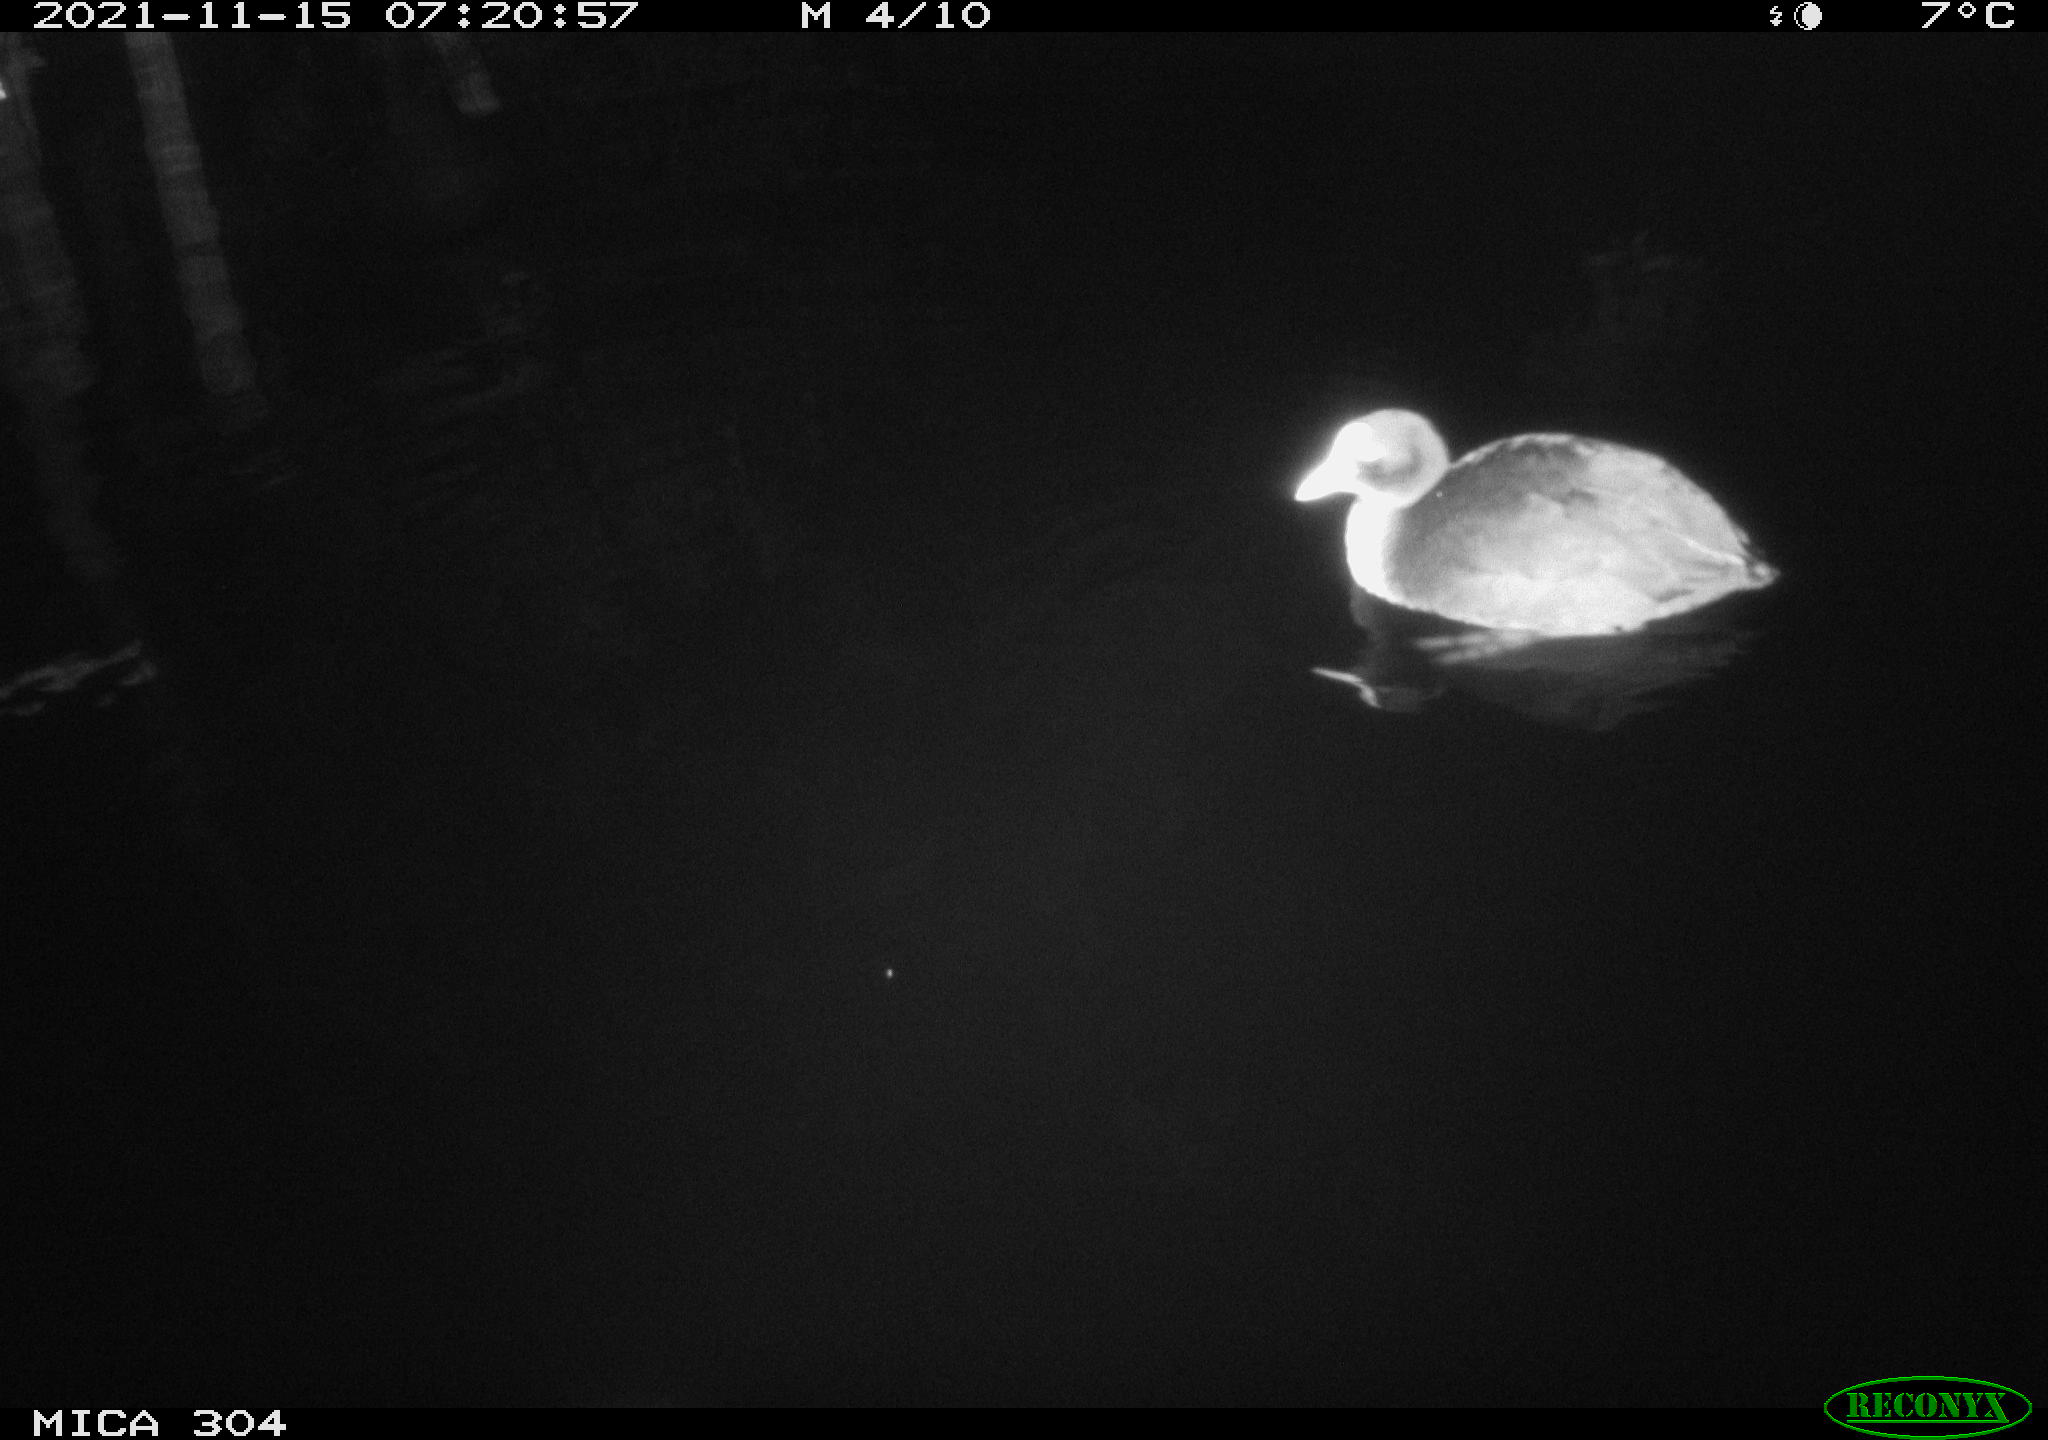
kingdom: Animalia
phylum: Chordata
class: Aves
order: Gruiformes
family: Rallidae
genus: Fulica
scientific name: Fulica atra
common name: Eurasian coot
